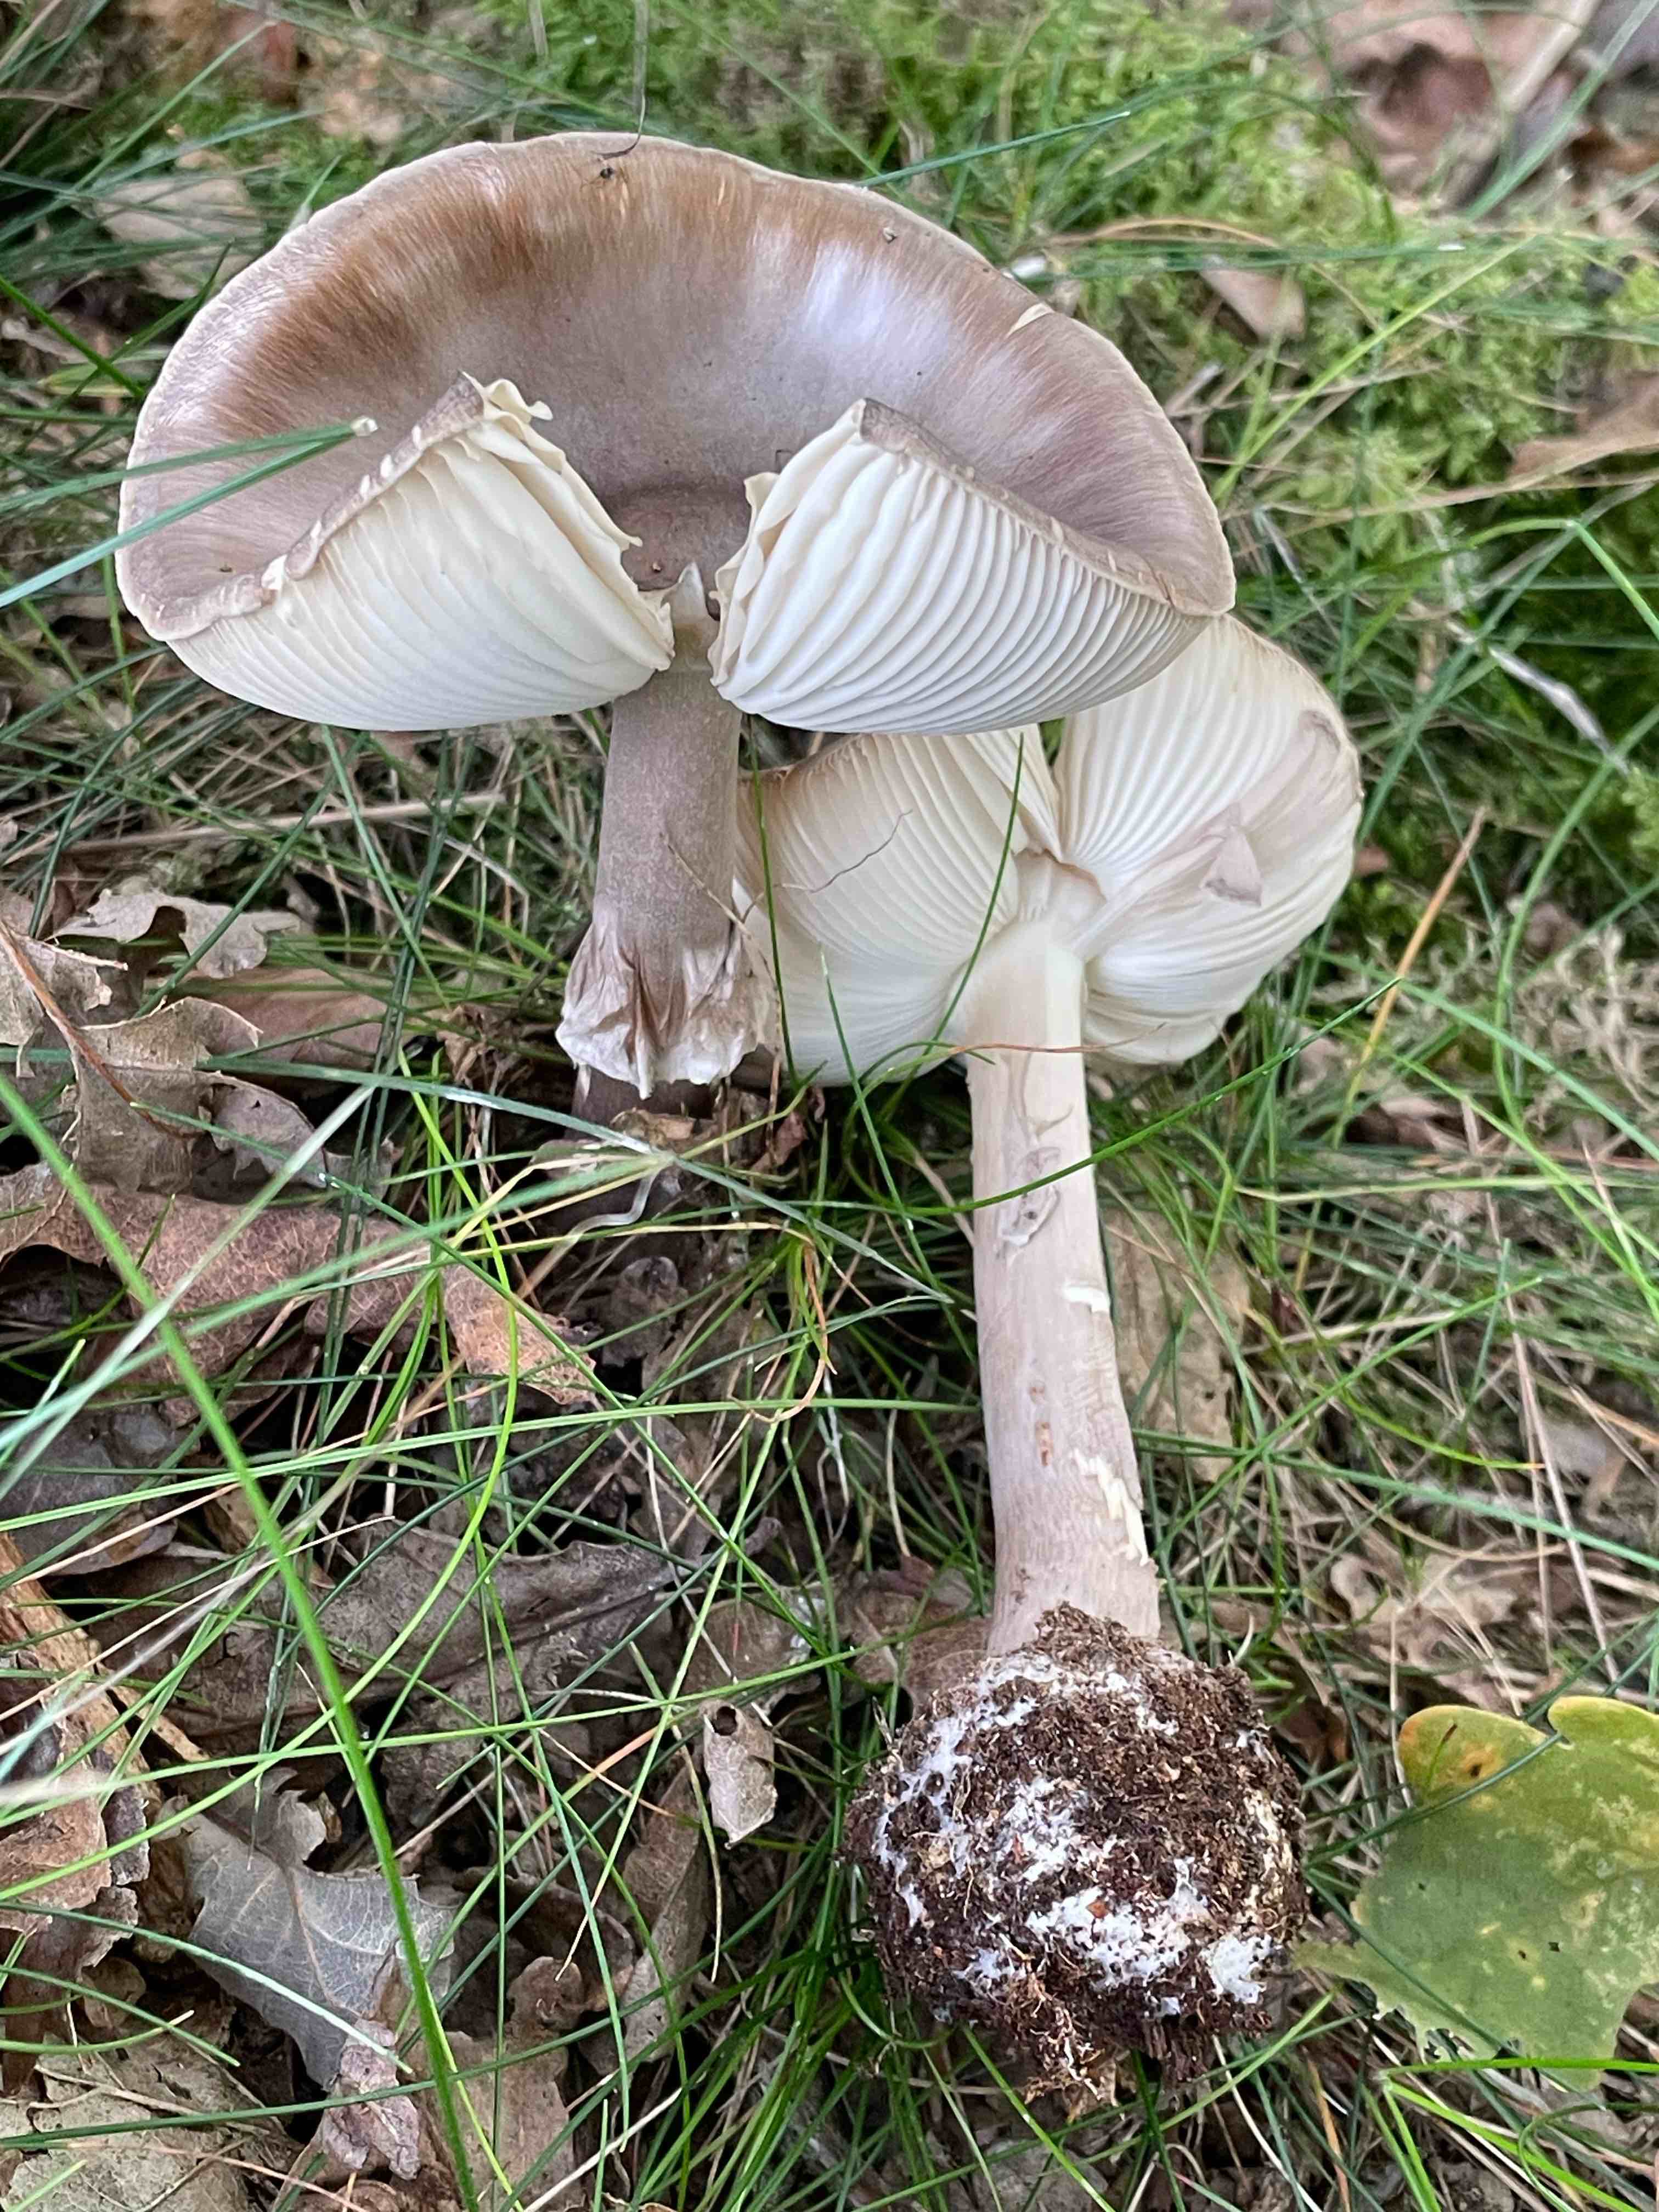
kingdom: Fungi
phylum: Basidiomycota
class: Agaricomycetes
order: Agaricales
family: Amanitaceae
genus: Amanita
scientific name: Amanita
